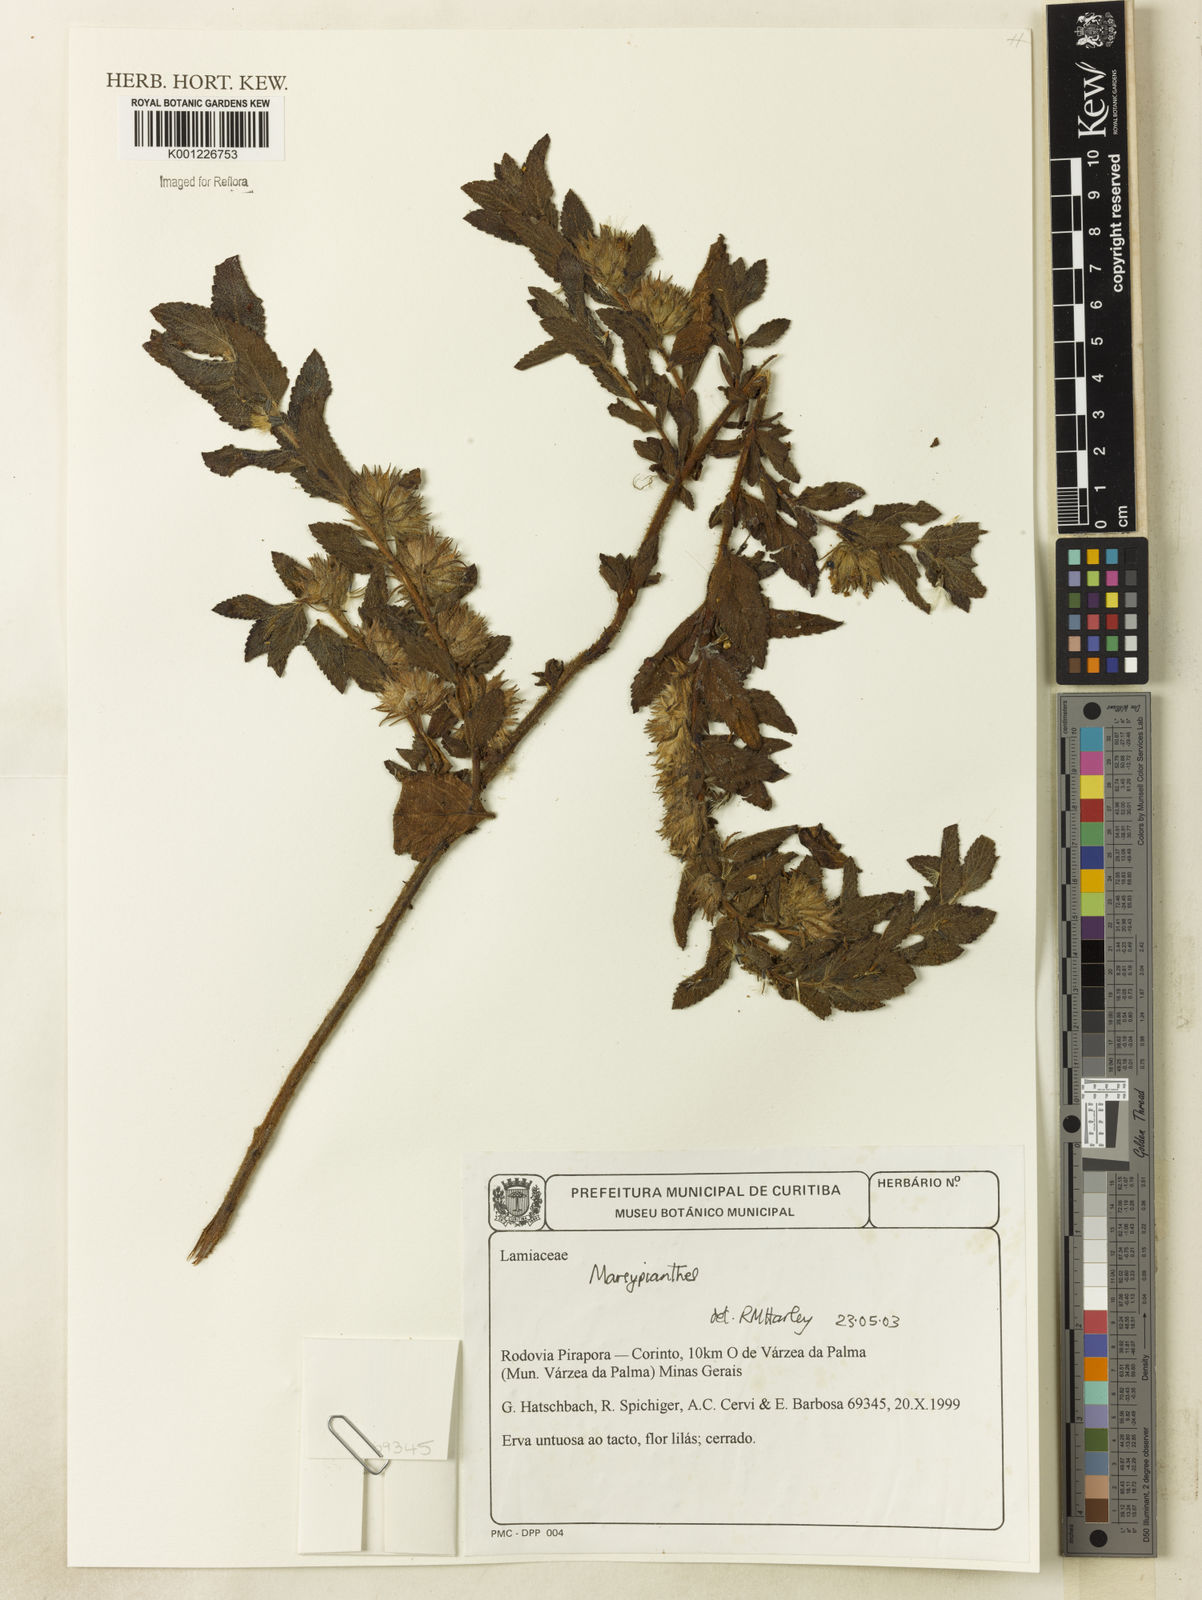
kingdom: Plantae
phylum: Tracheophyta
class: Magnoliopsida
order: Lamiales
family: Lamiaceae
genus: Marsypianthes
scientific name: Marsypianthes
